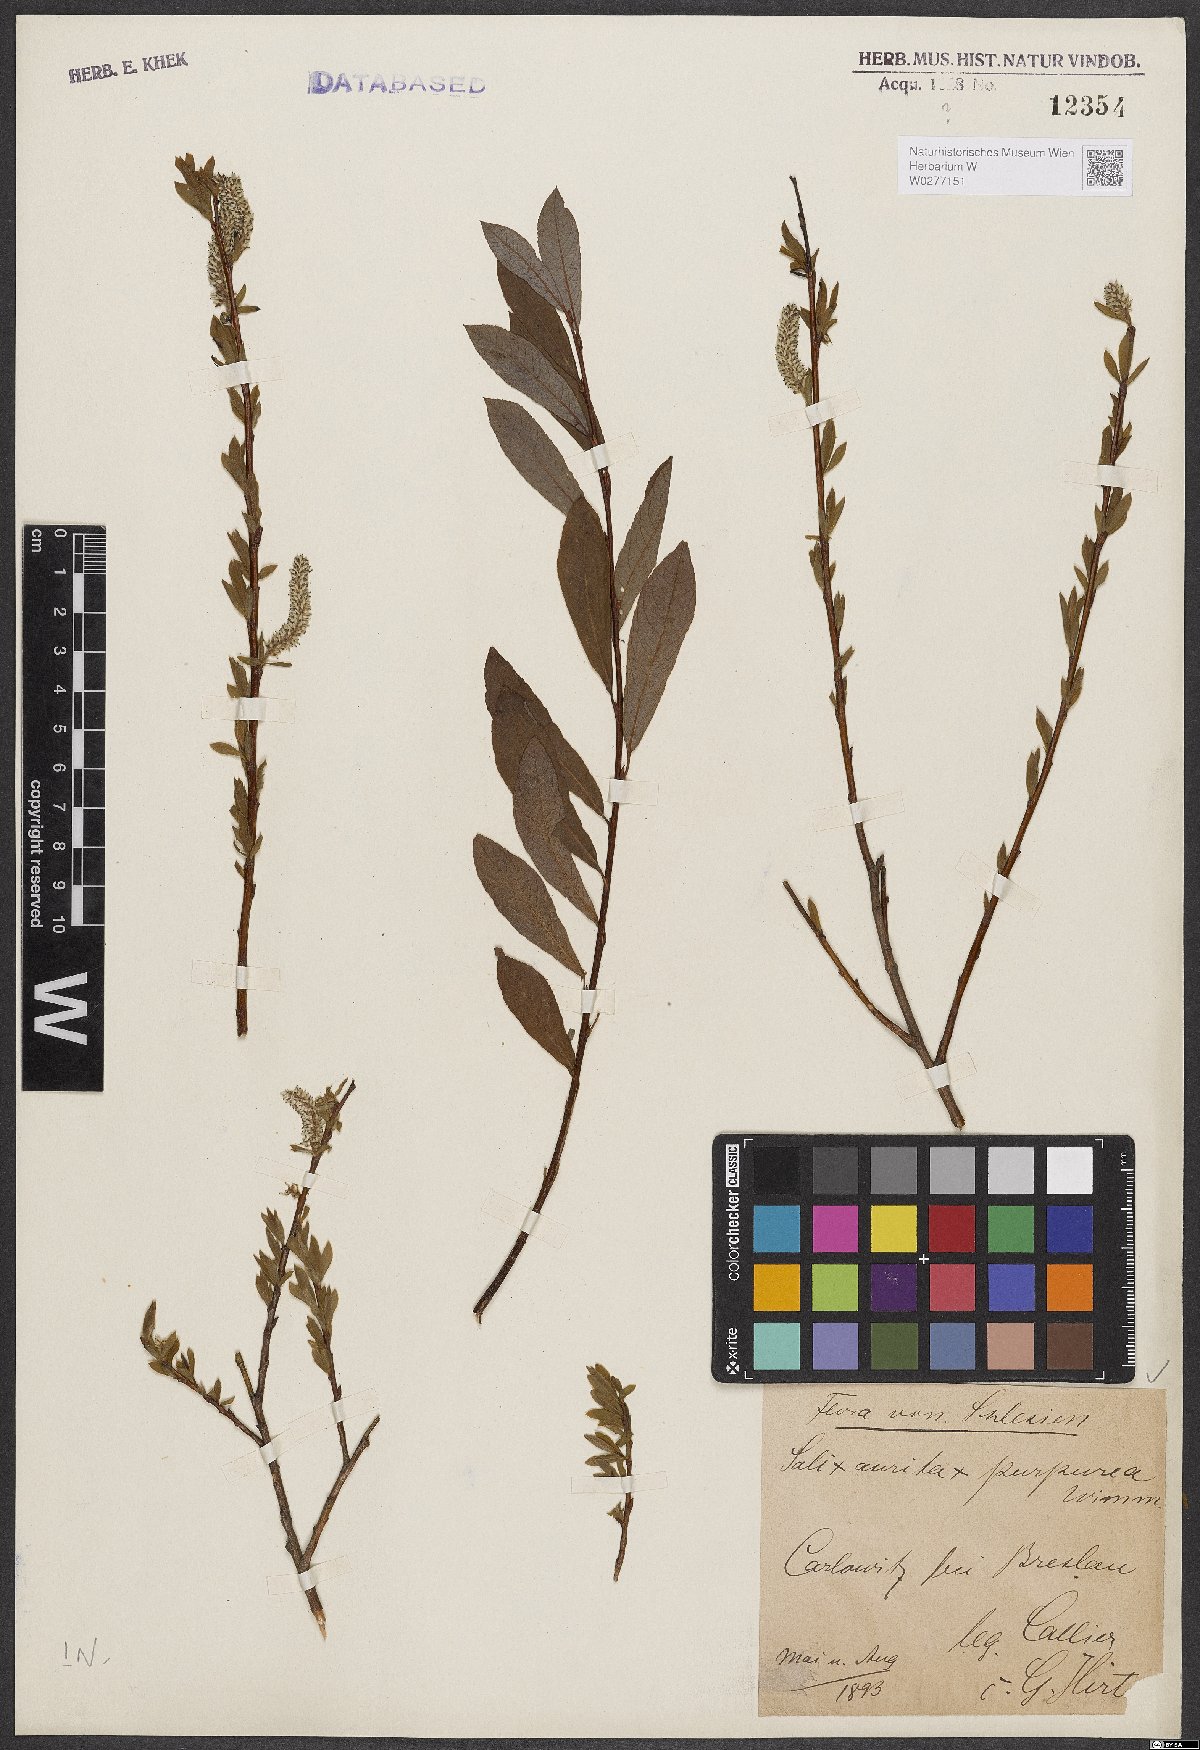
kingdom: Plantae
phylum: Tracheophyta
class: Magnoliopsida
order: Malpighiales
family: Salicaceae
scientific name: Salicaceae
